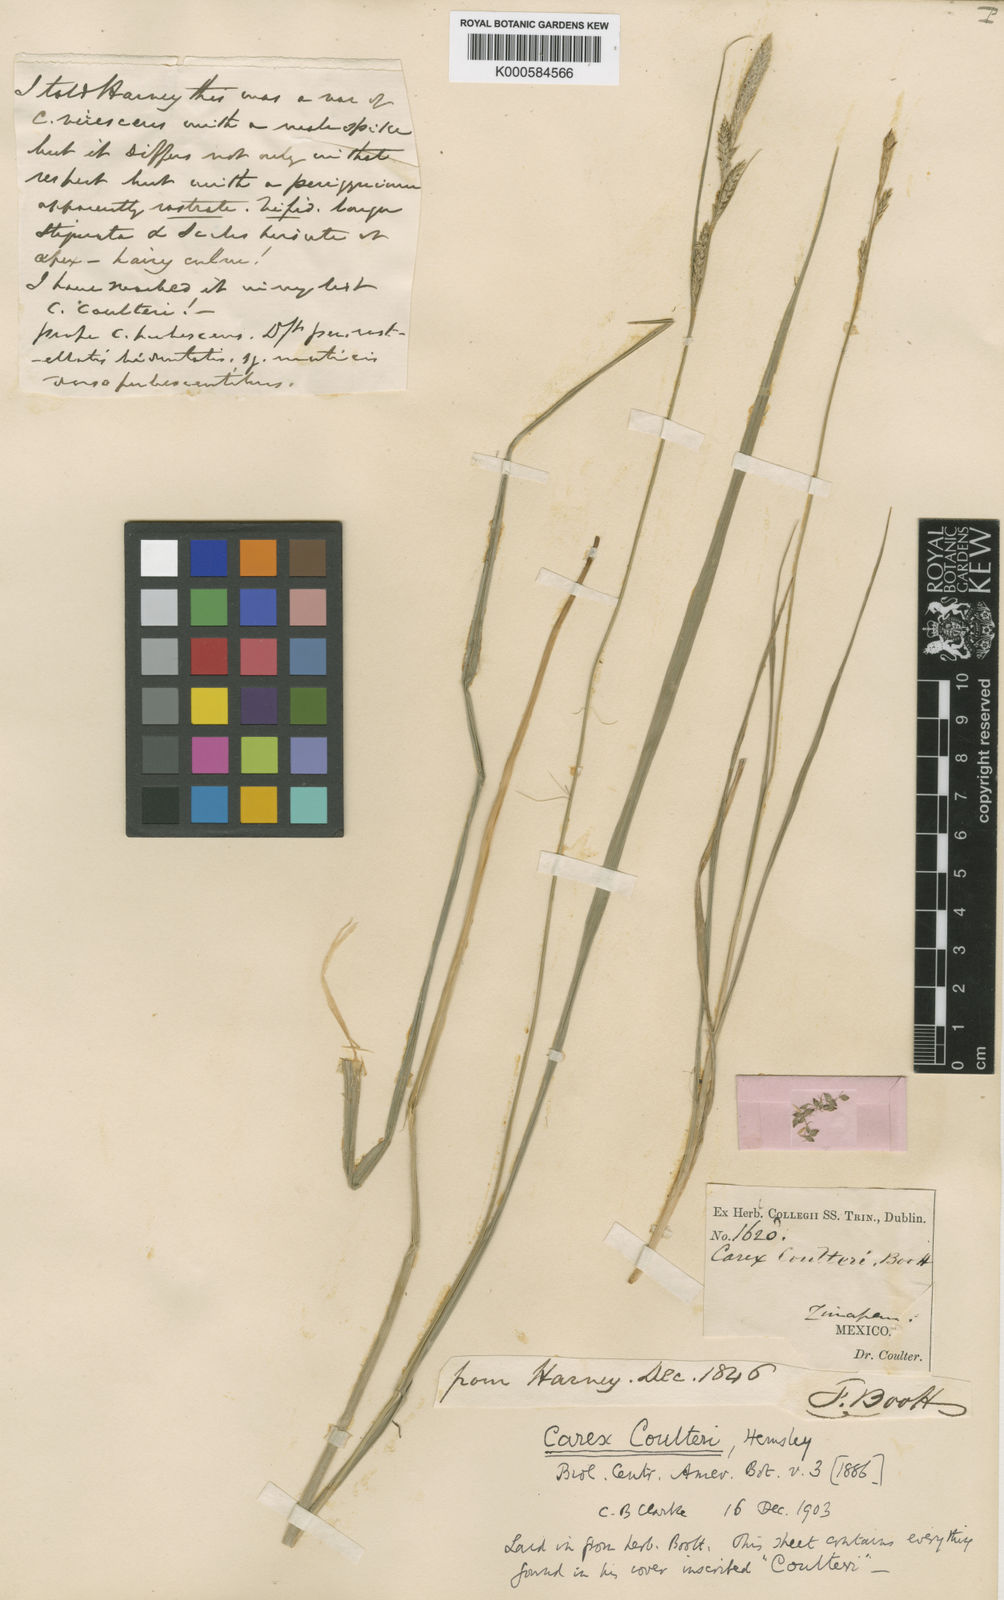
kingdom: Plantae
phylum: Tracheophyta
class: Liliopsida
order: Poales
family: Cyperaceae
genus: Carex
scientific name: Carex coulteri
